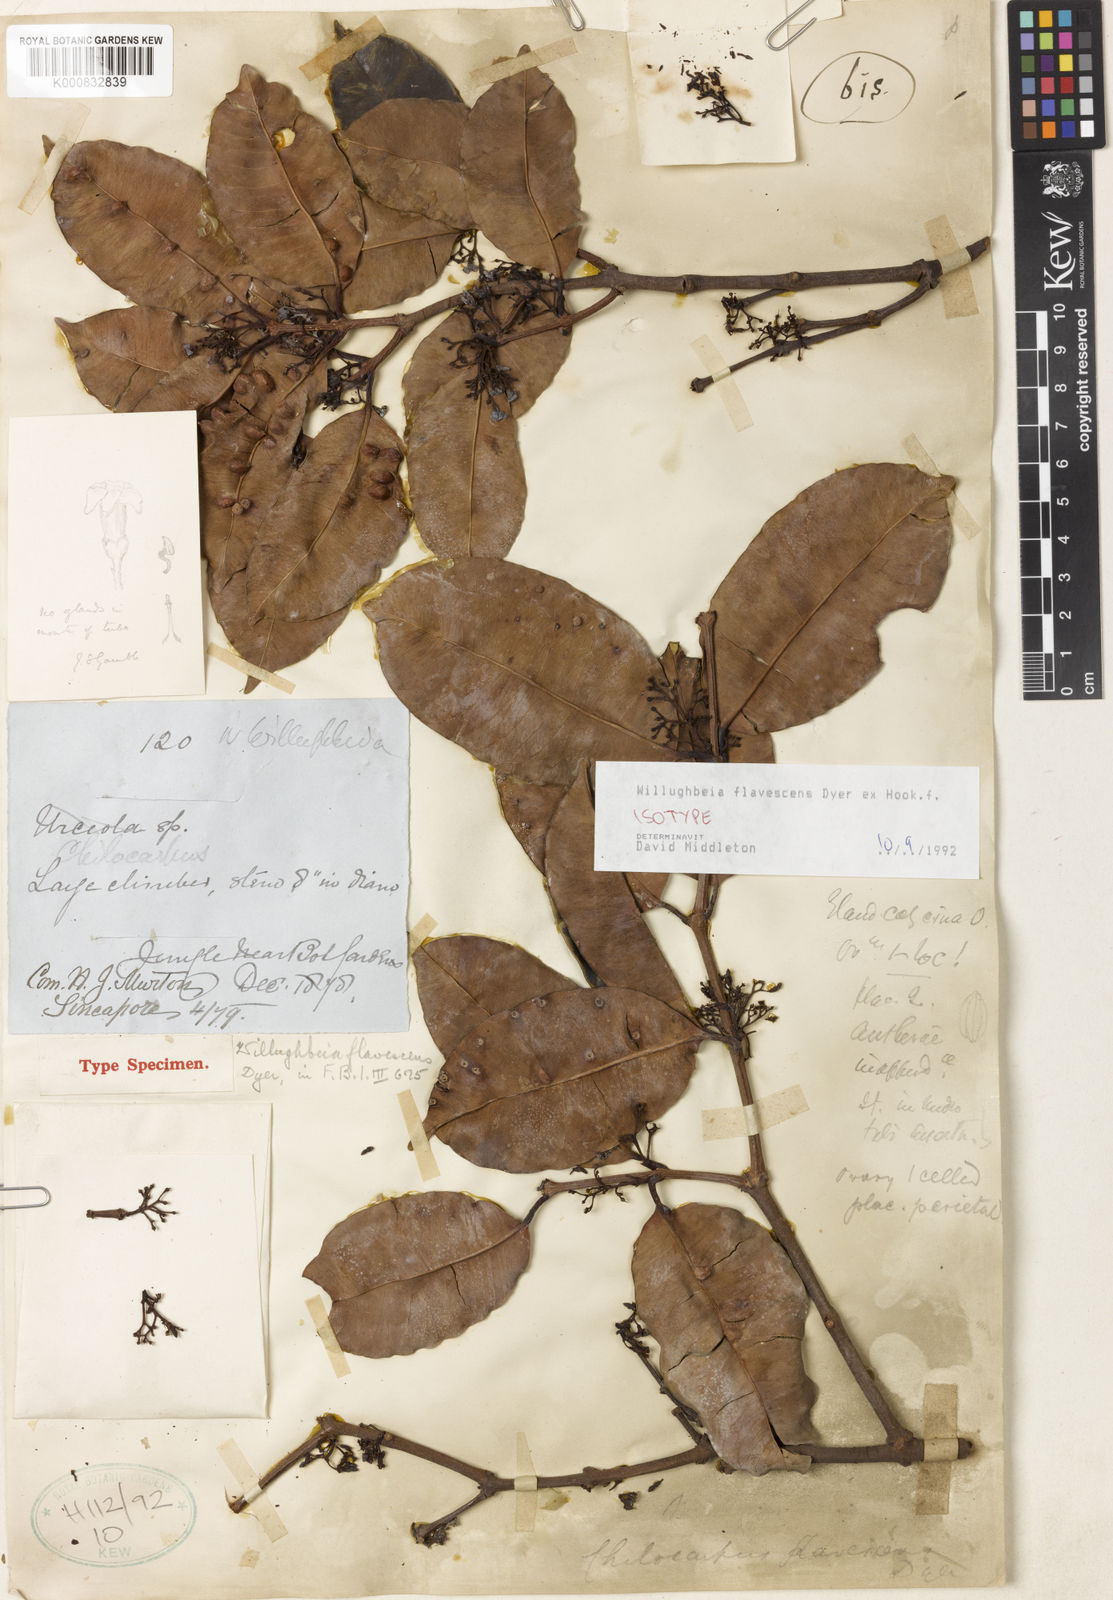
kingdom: Plantae
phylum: Tracheophyta
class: Magnoliopsida
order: Gentianales
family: Apocynaceae
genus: Willughbeia
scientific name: Willughbeia flavescens
